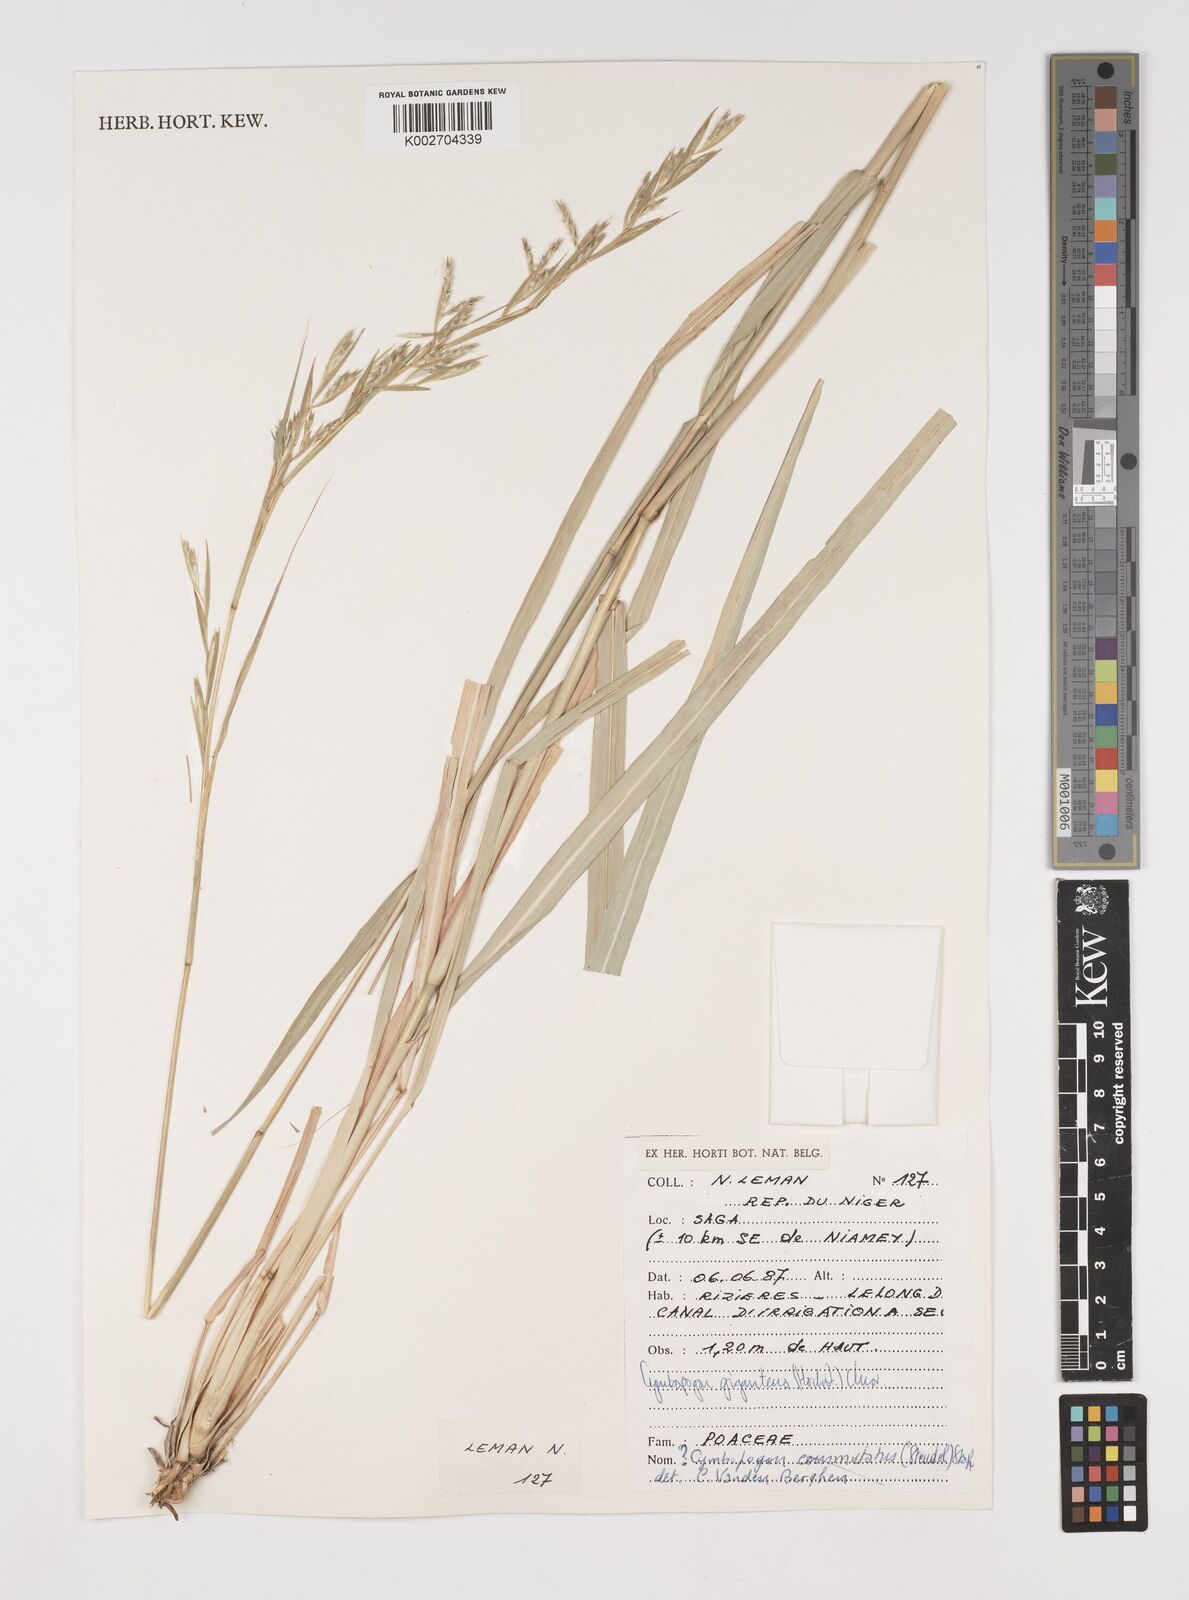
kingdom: Plantae
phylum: Tracheophyta
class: Liliopsida
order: Poales
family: Poaceae
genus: Cymbopogon
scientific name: Cymbopogon giganteus
